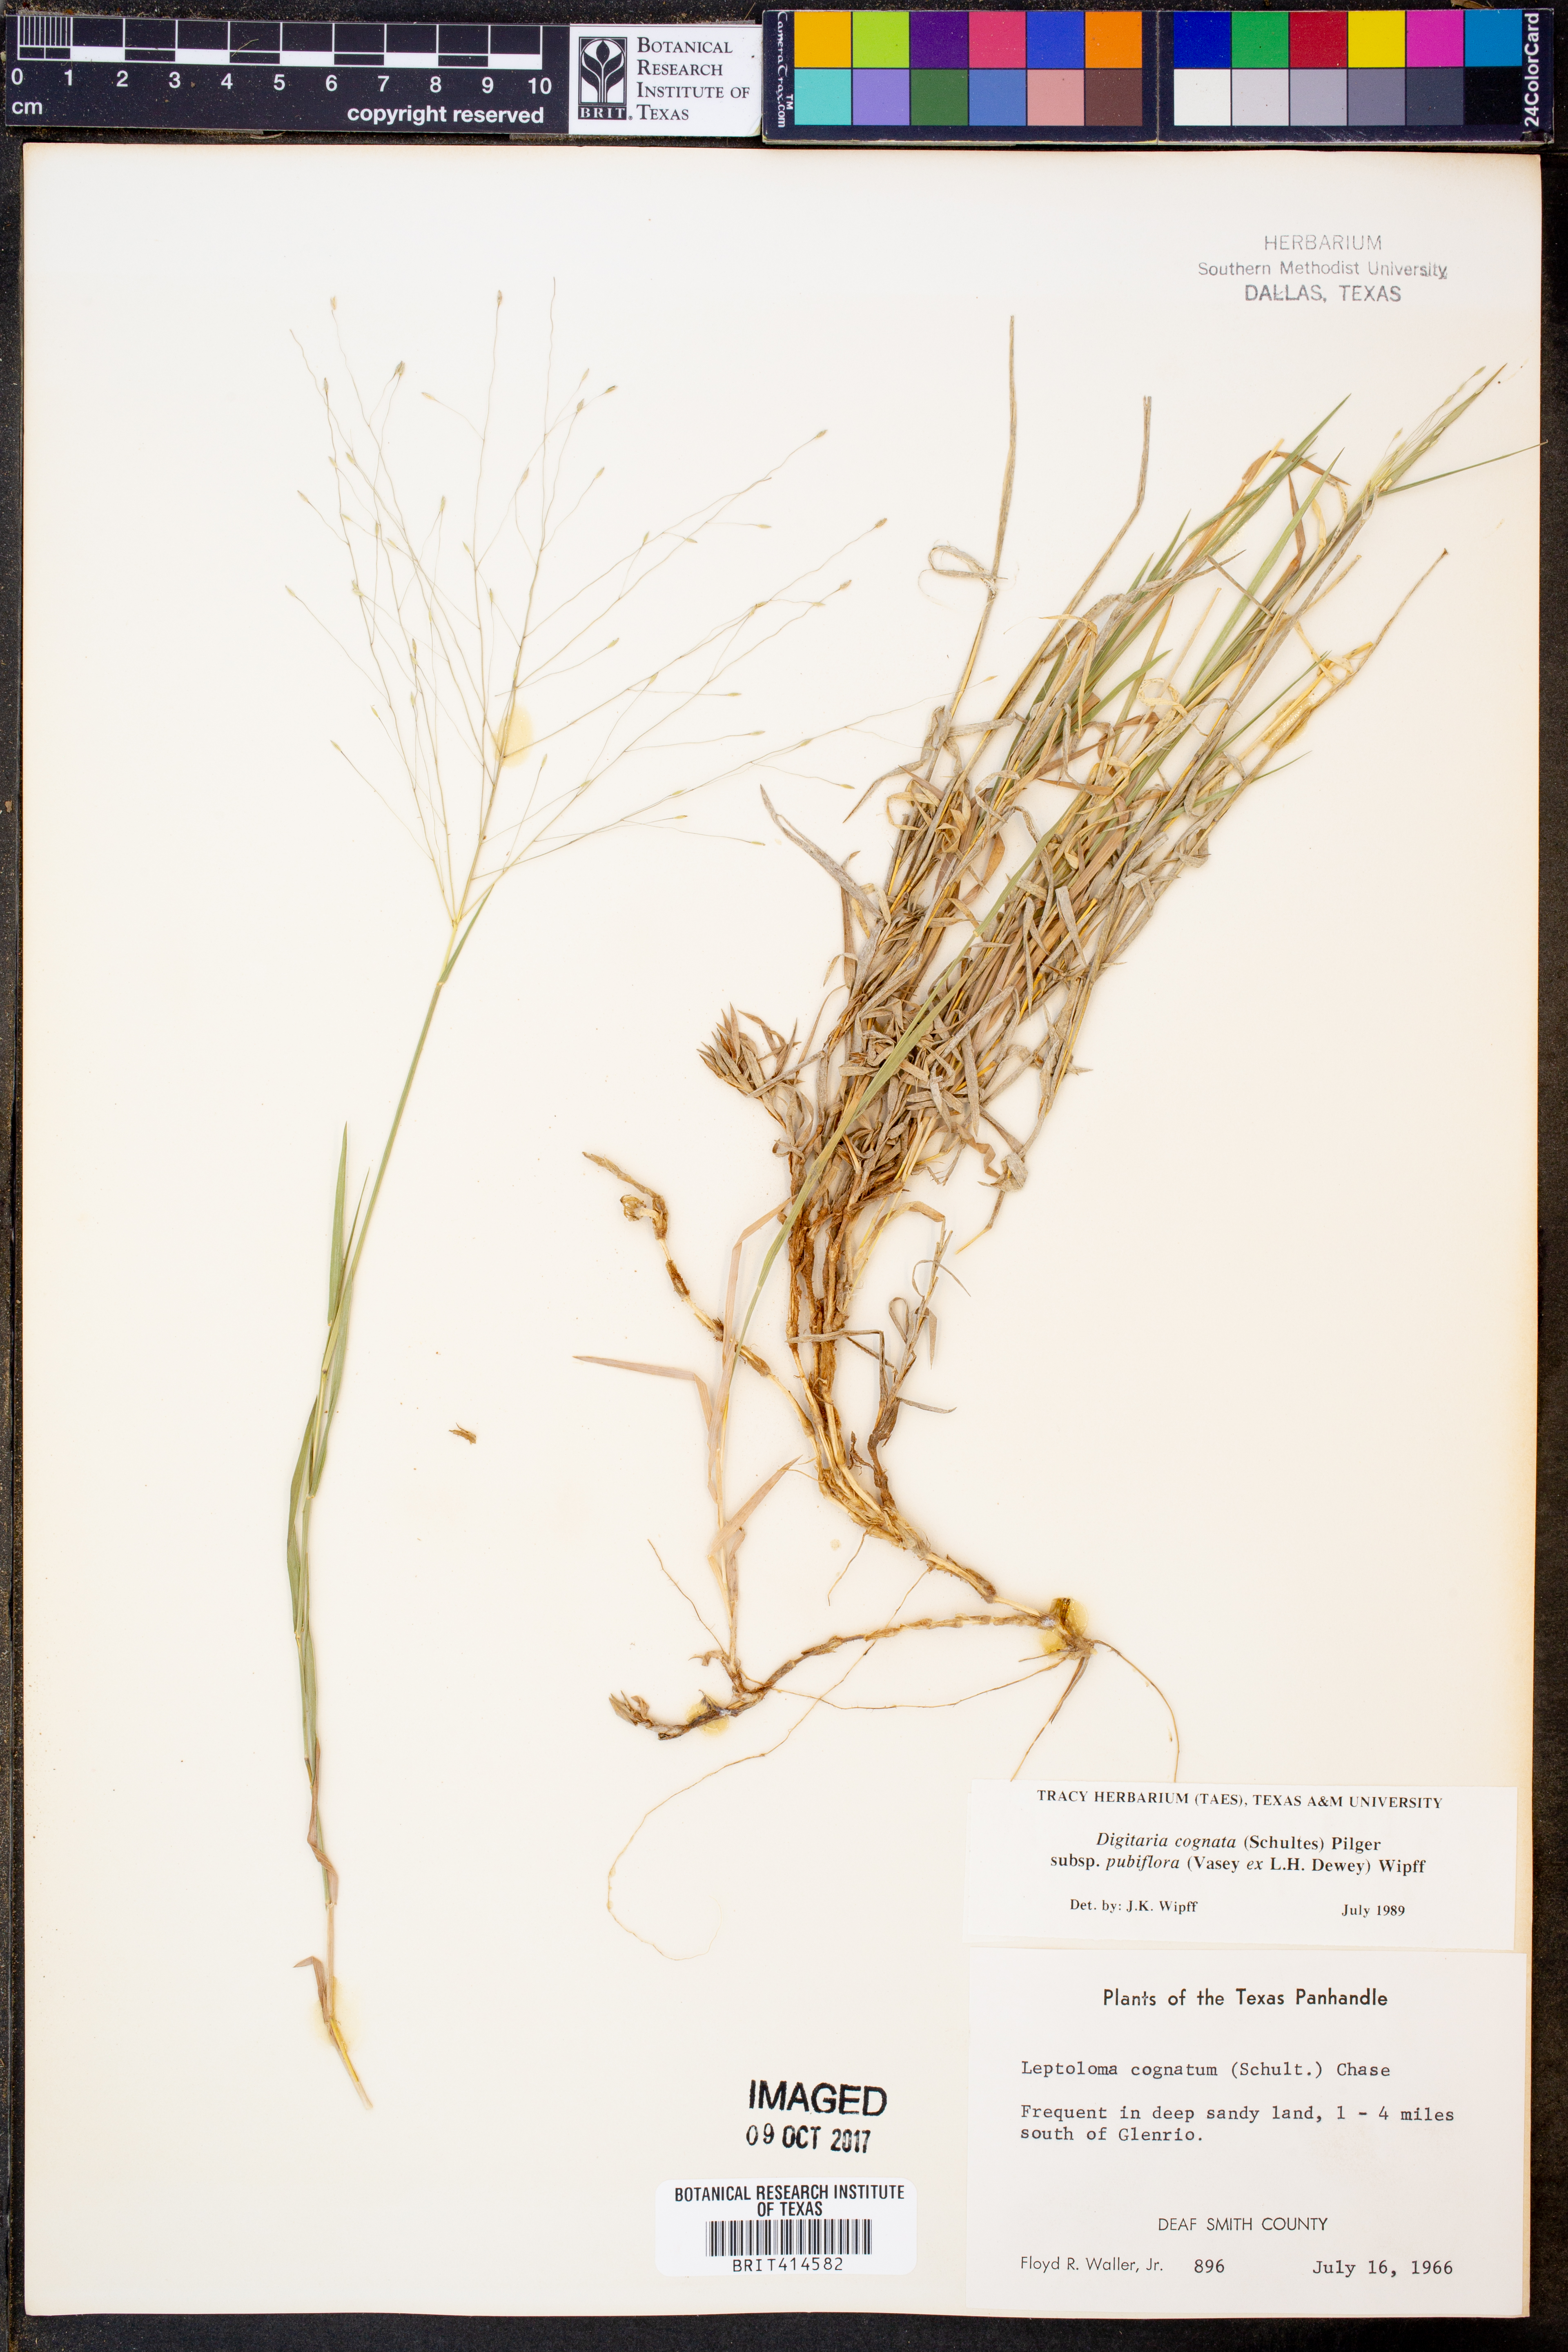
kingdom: Plantae
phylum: Tracheophyta
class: Liliopsida
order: Poales
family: Poaceae
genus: Digitaria
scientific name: Digitaria cognata
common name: Fall witchgrass
